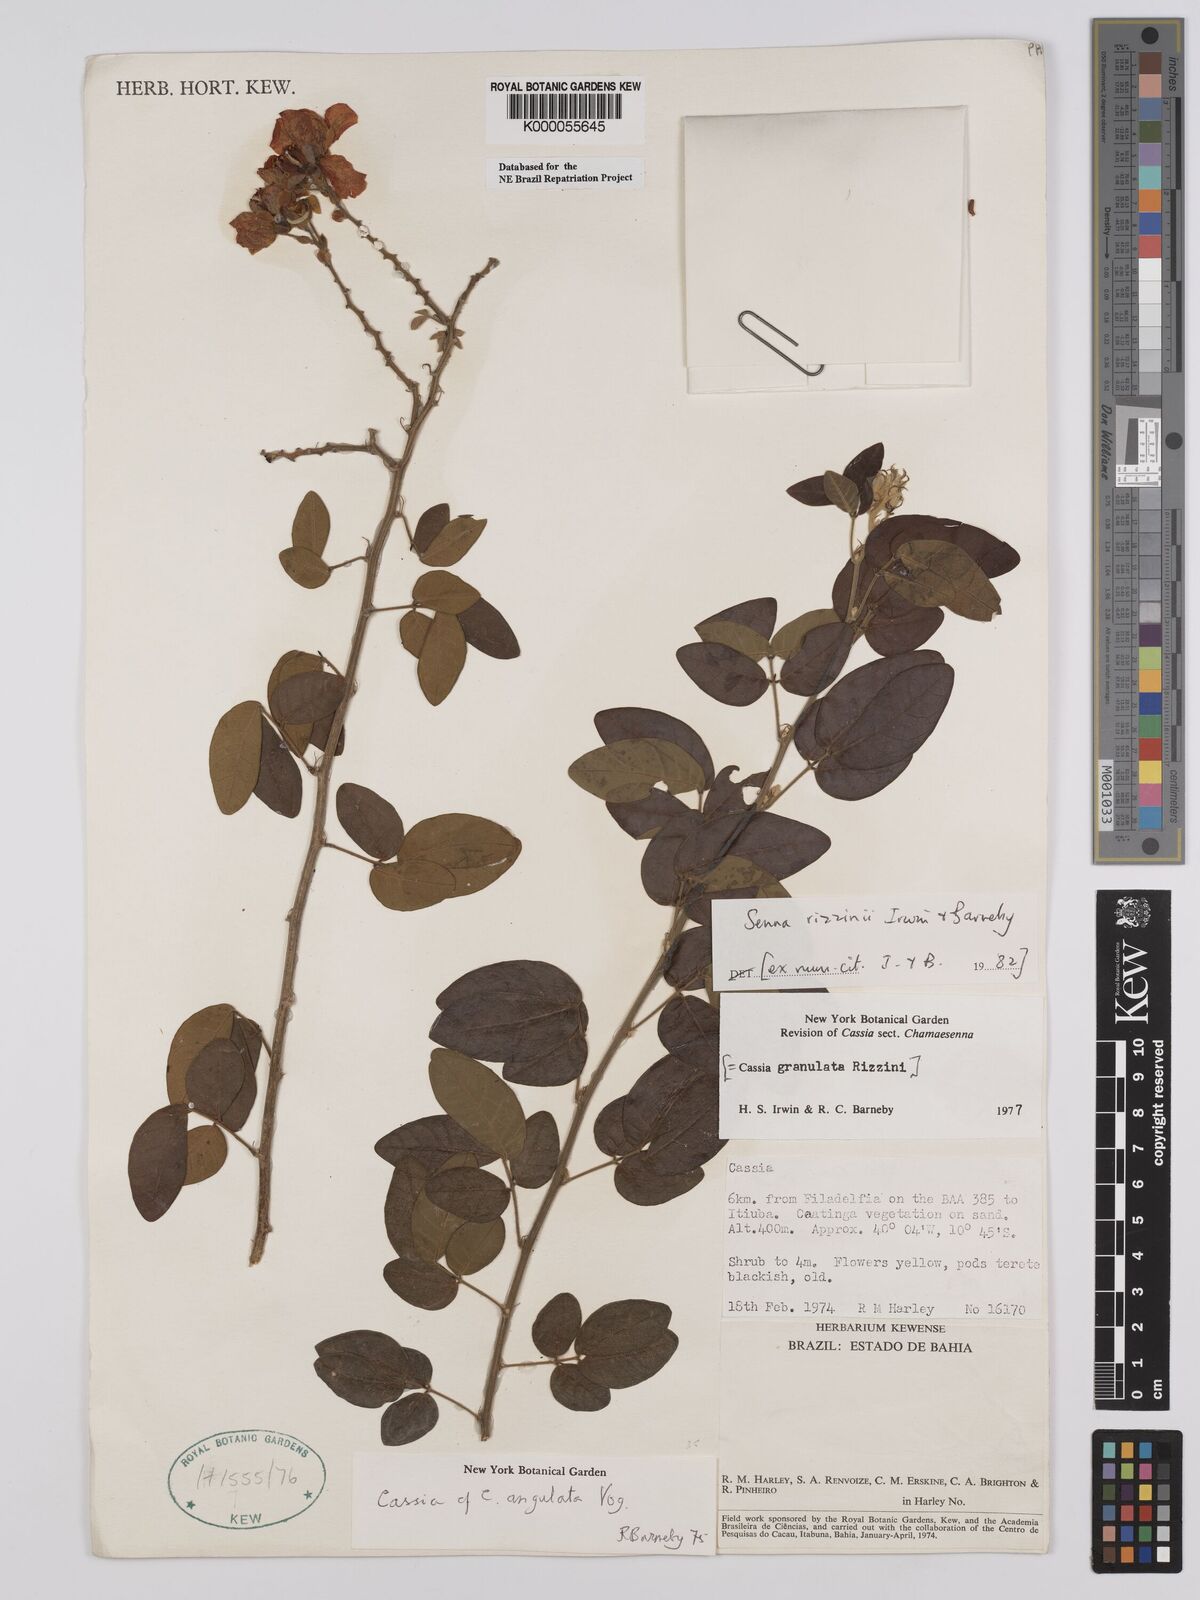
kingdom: Plantae
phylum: Tracheophyta
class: Magnoliopsida
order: Fabales
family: Fabaceae
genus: Senna
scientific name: Senna rizzinii
